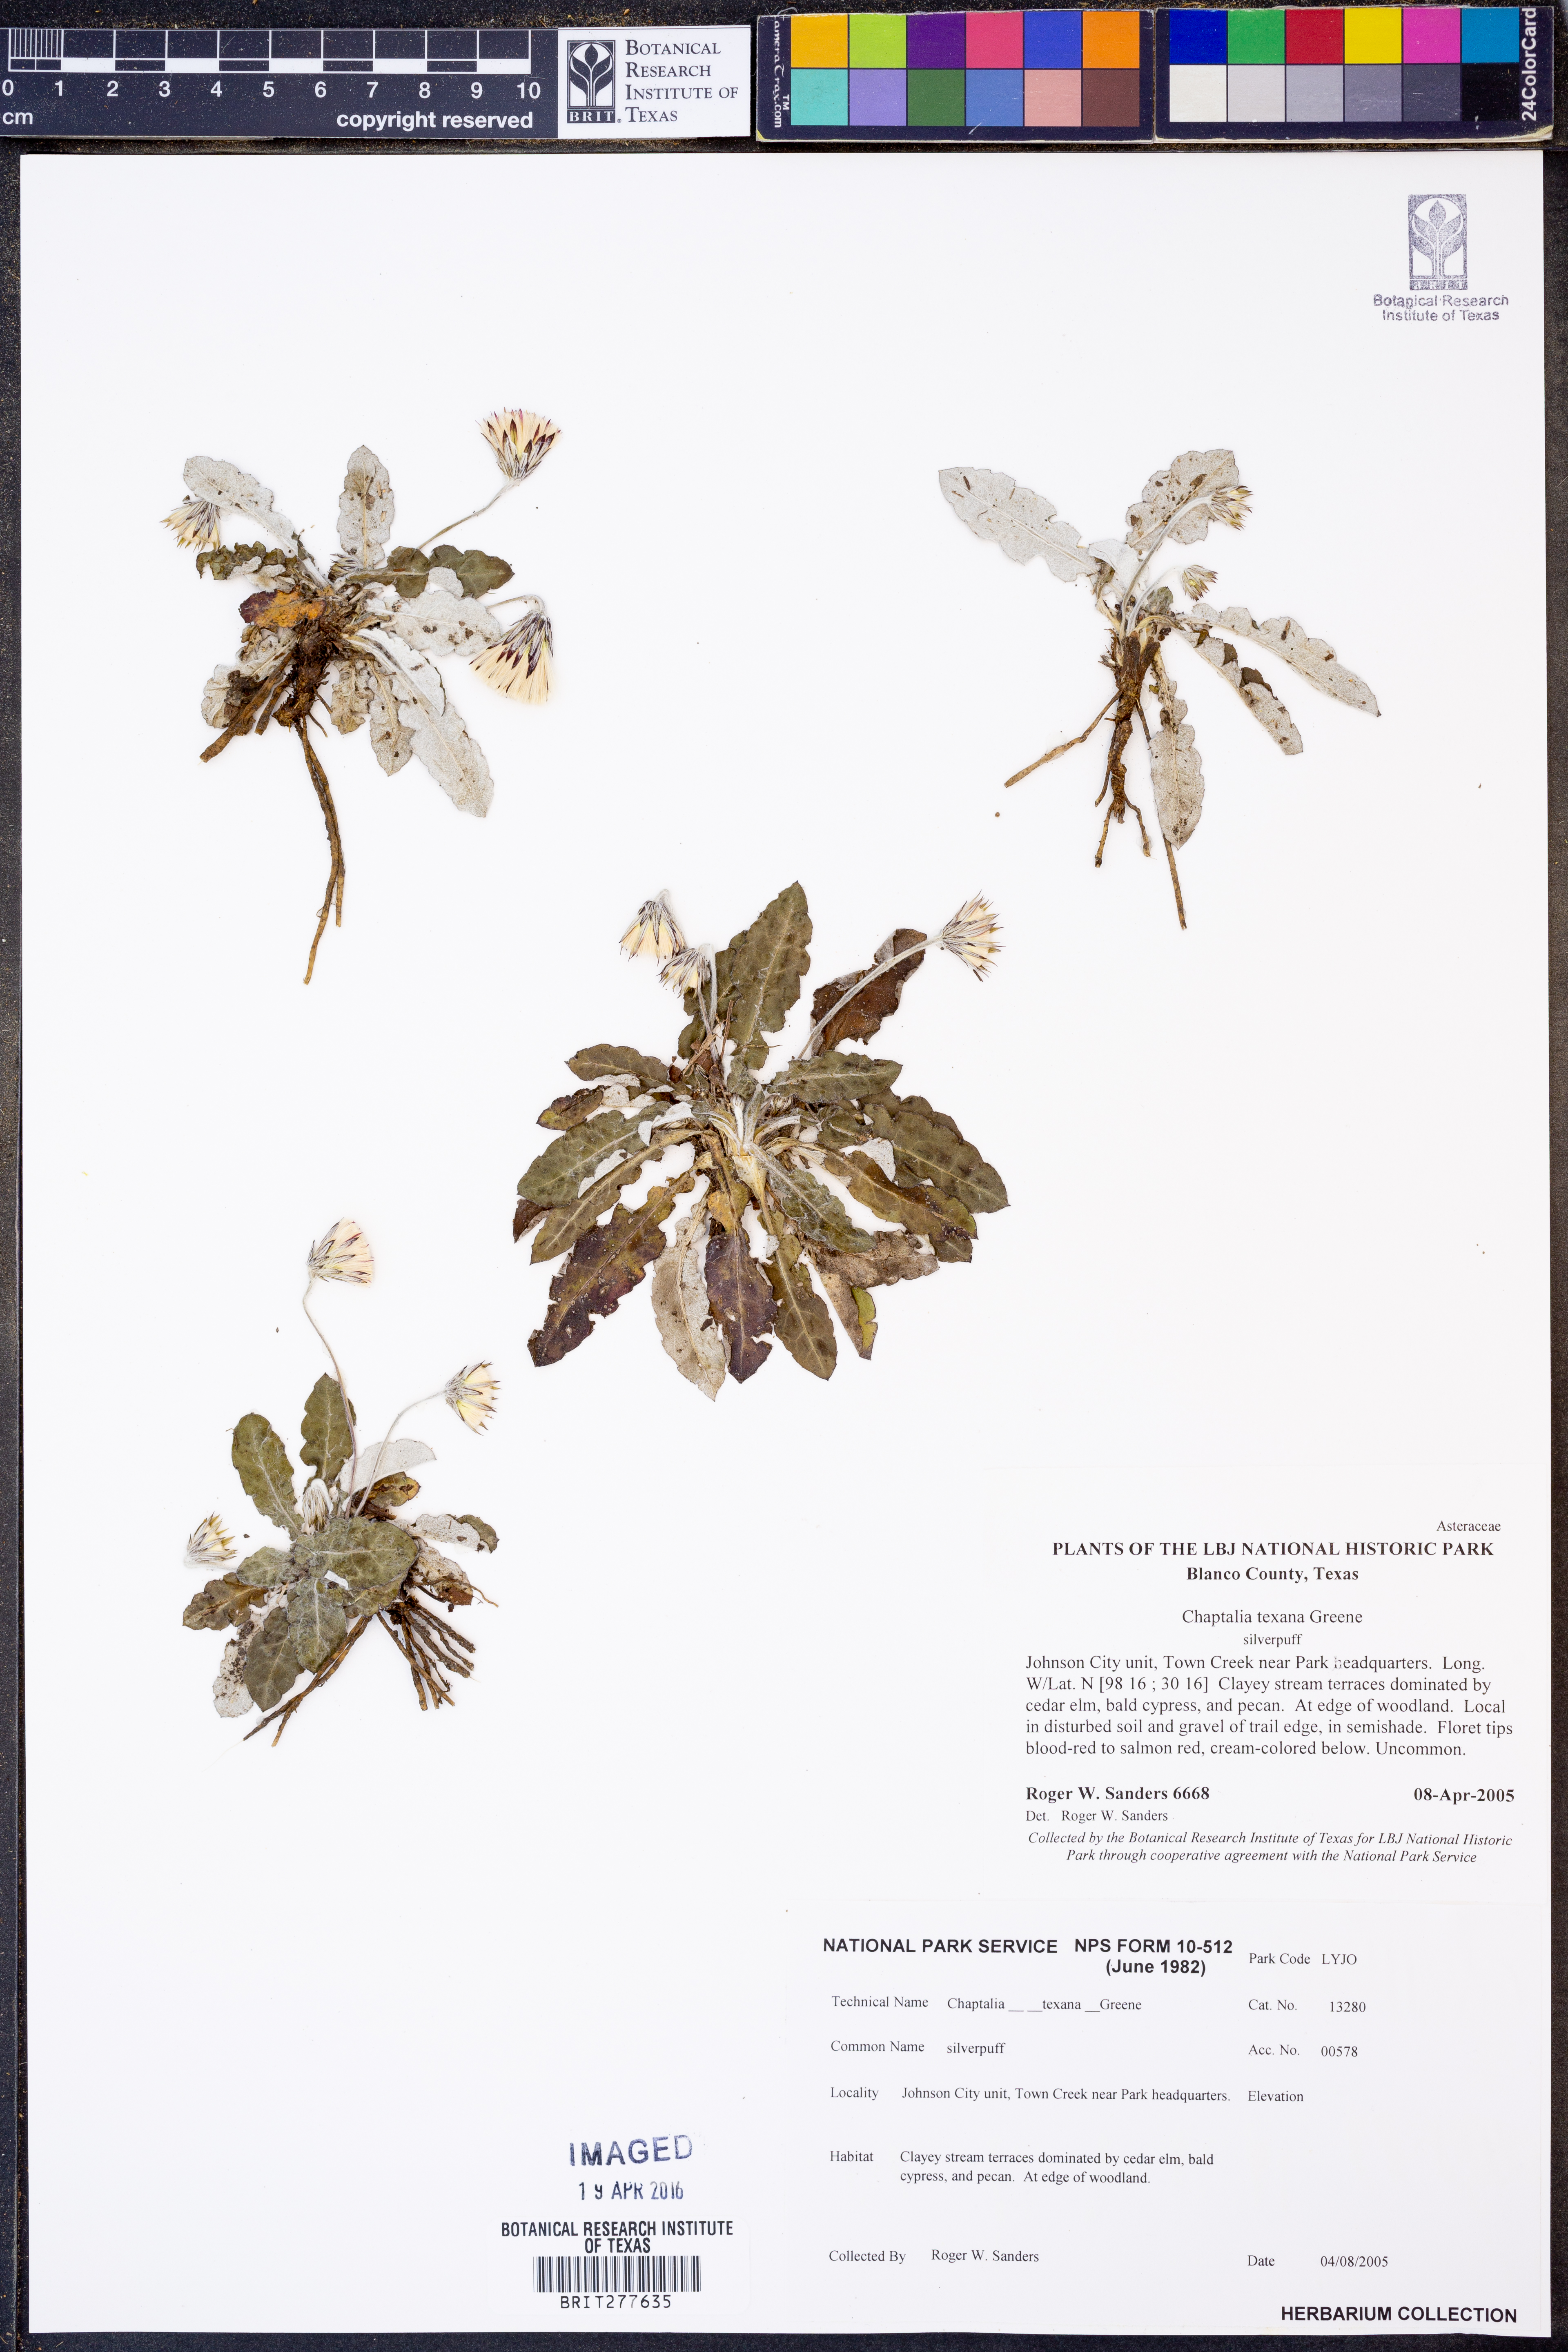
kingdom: Plantae
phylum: Tracheophyta
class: Magnoliopsida
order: Asterales
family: Asteraceae
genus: Chaptalia
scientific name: Chaptalia texana
